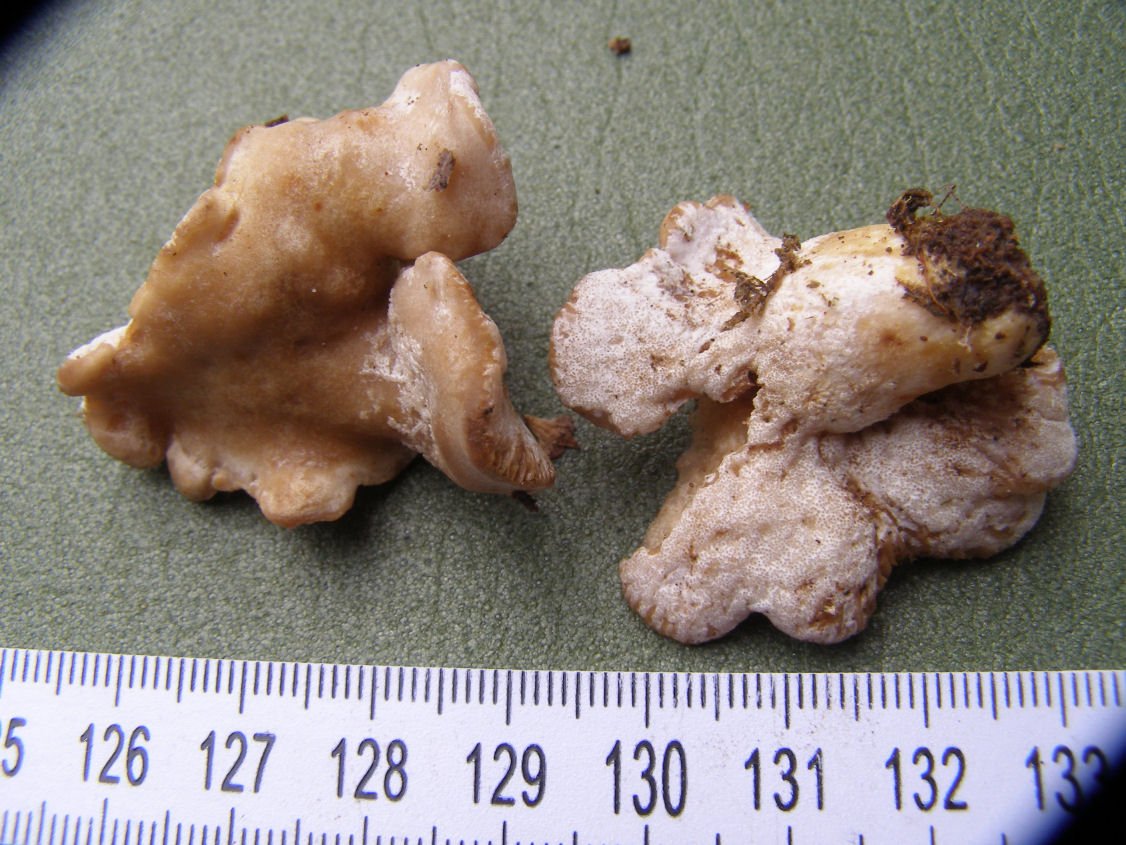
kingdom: Fungi
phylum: Ascomycota
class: Sordariomycetes
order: Hypocreales
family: Hypocreaceae
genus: Hypomyces
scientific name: Hypomyces
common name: snylteskorpe
